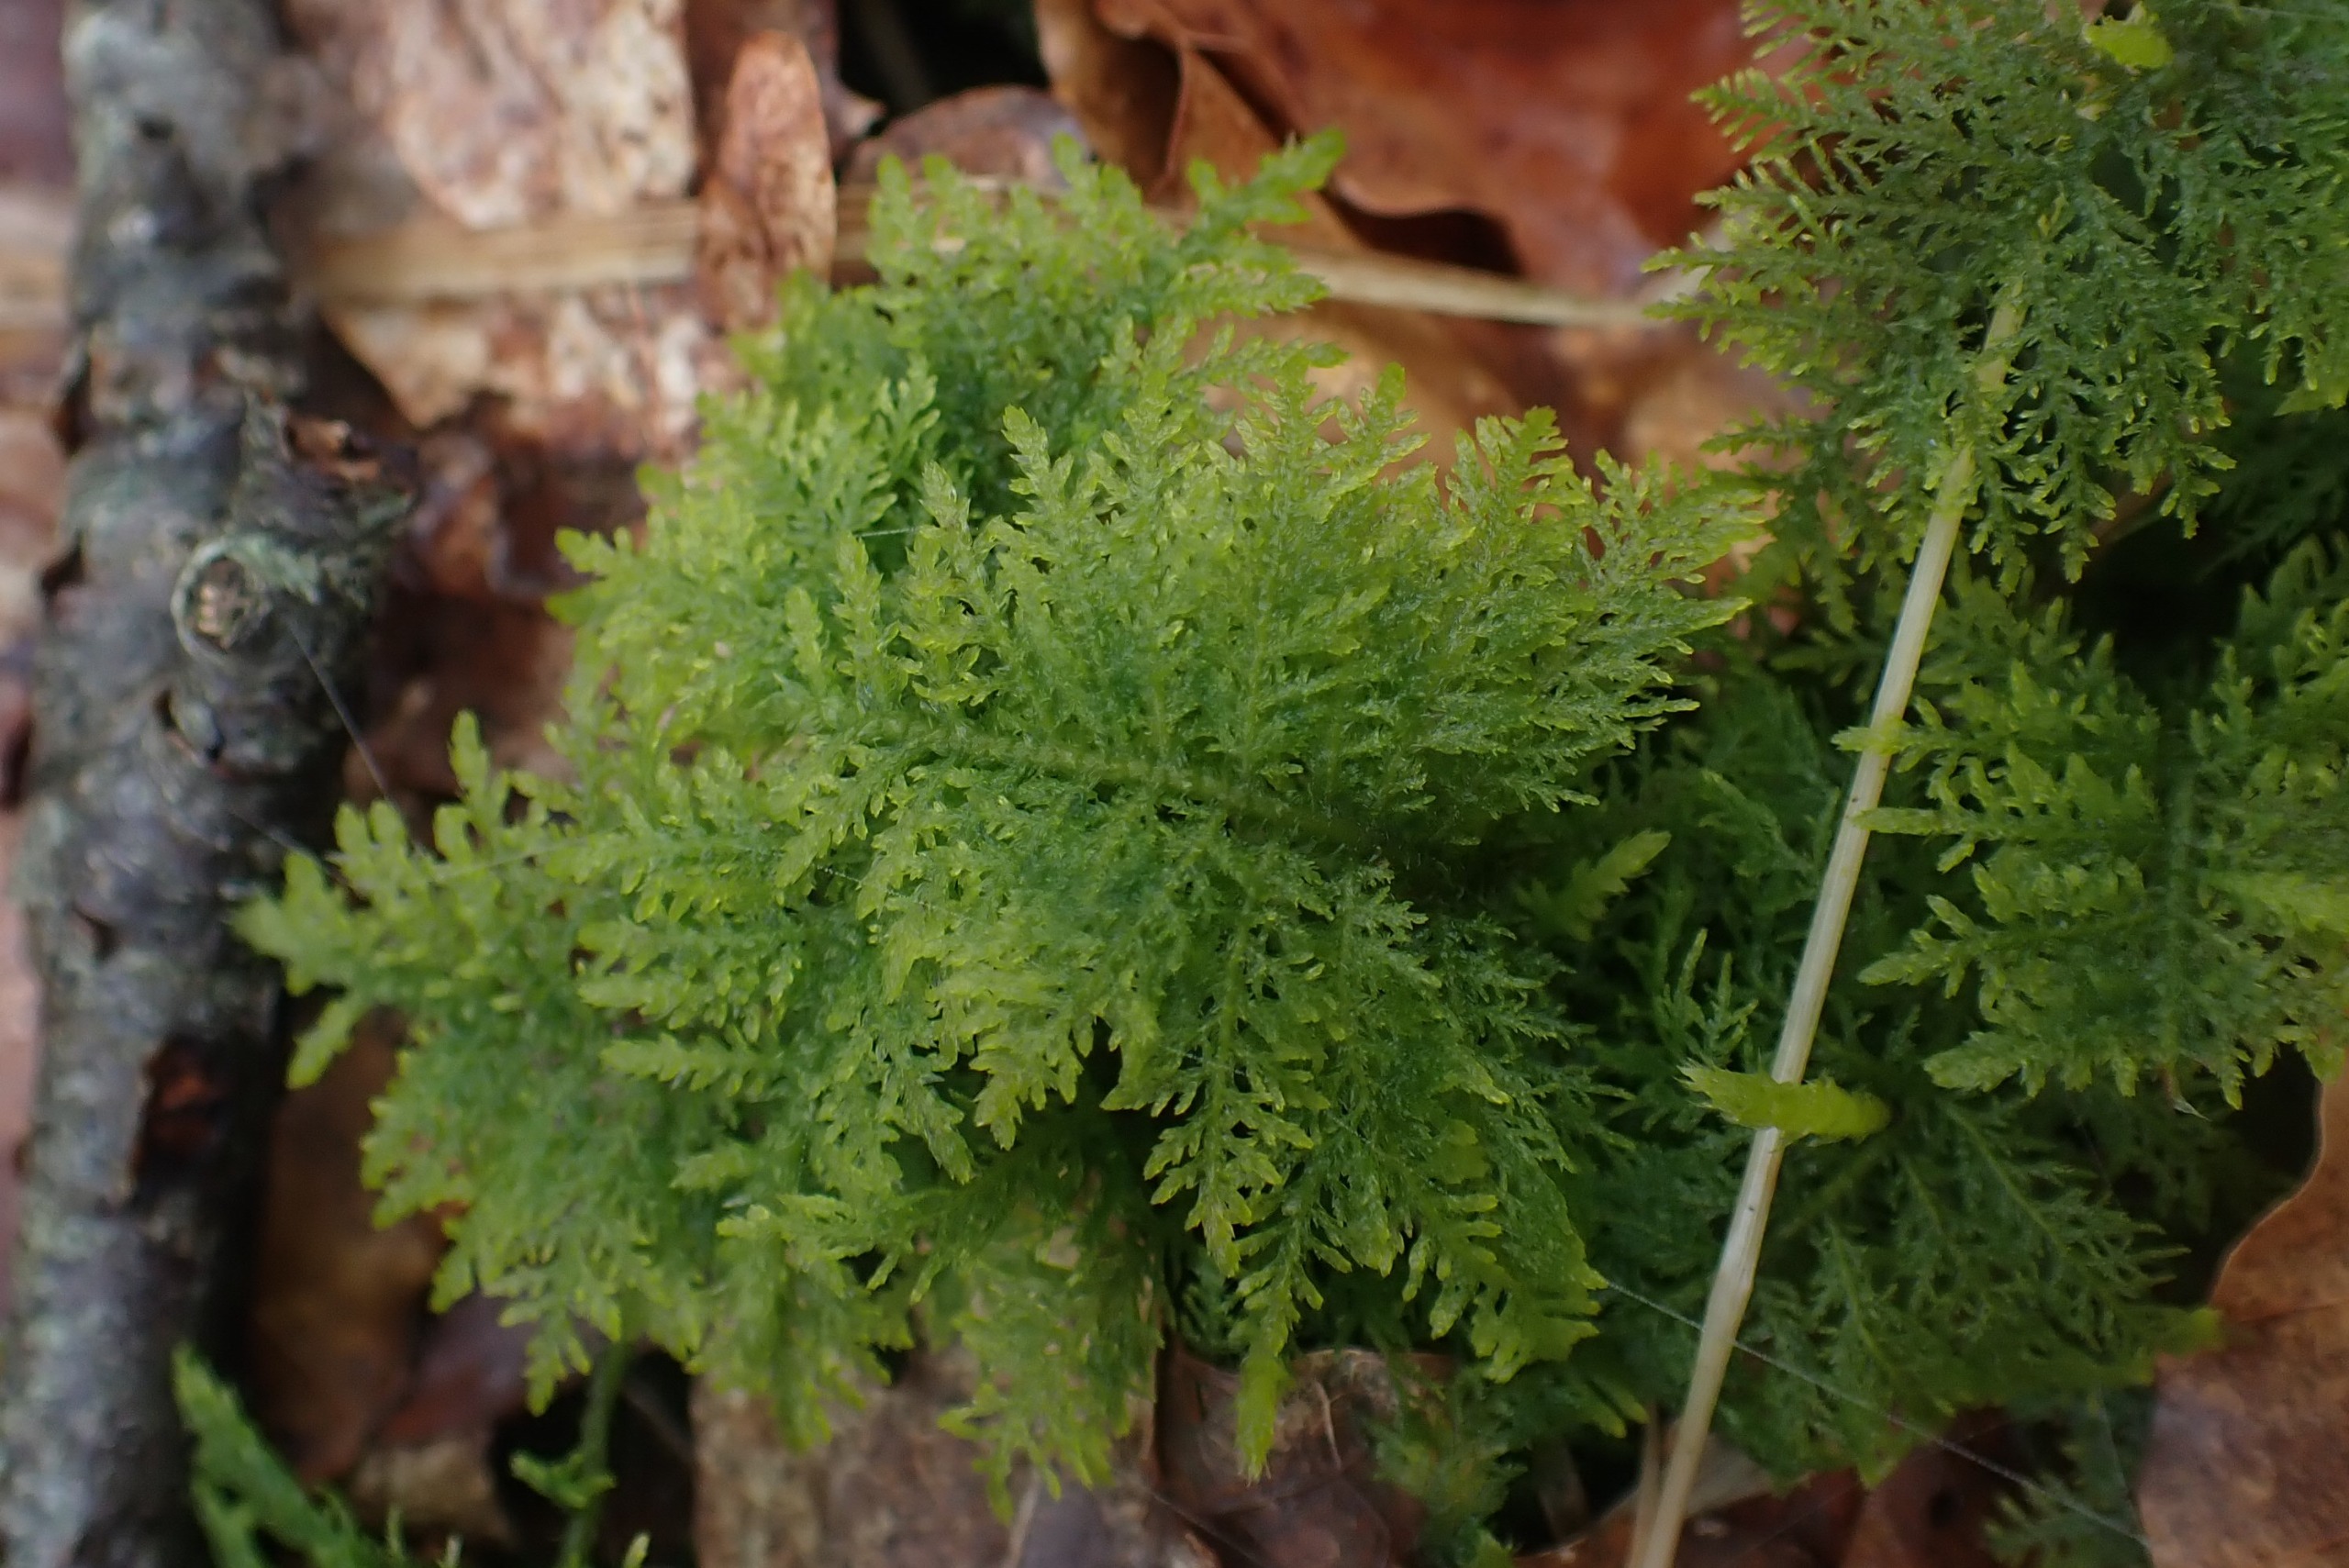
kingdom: Plantae
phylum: Bryophyta
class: Bryopsida
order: Hypnales
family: Thuidiaceae
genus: Thuidium
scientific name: Thuidium tamariscinum
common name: Pryd-bregnemos
